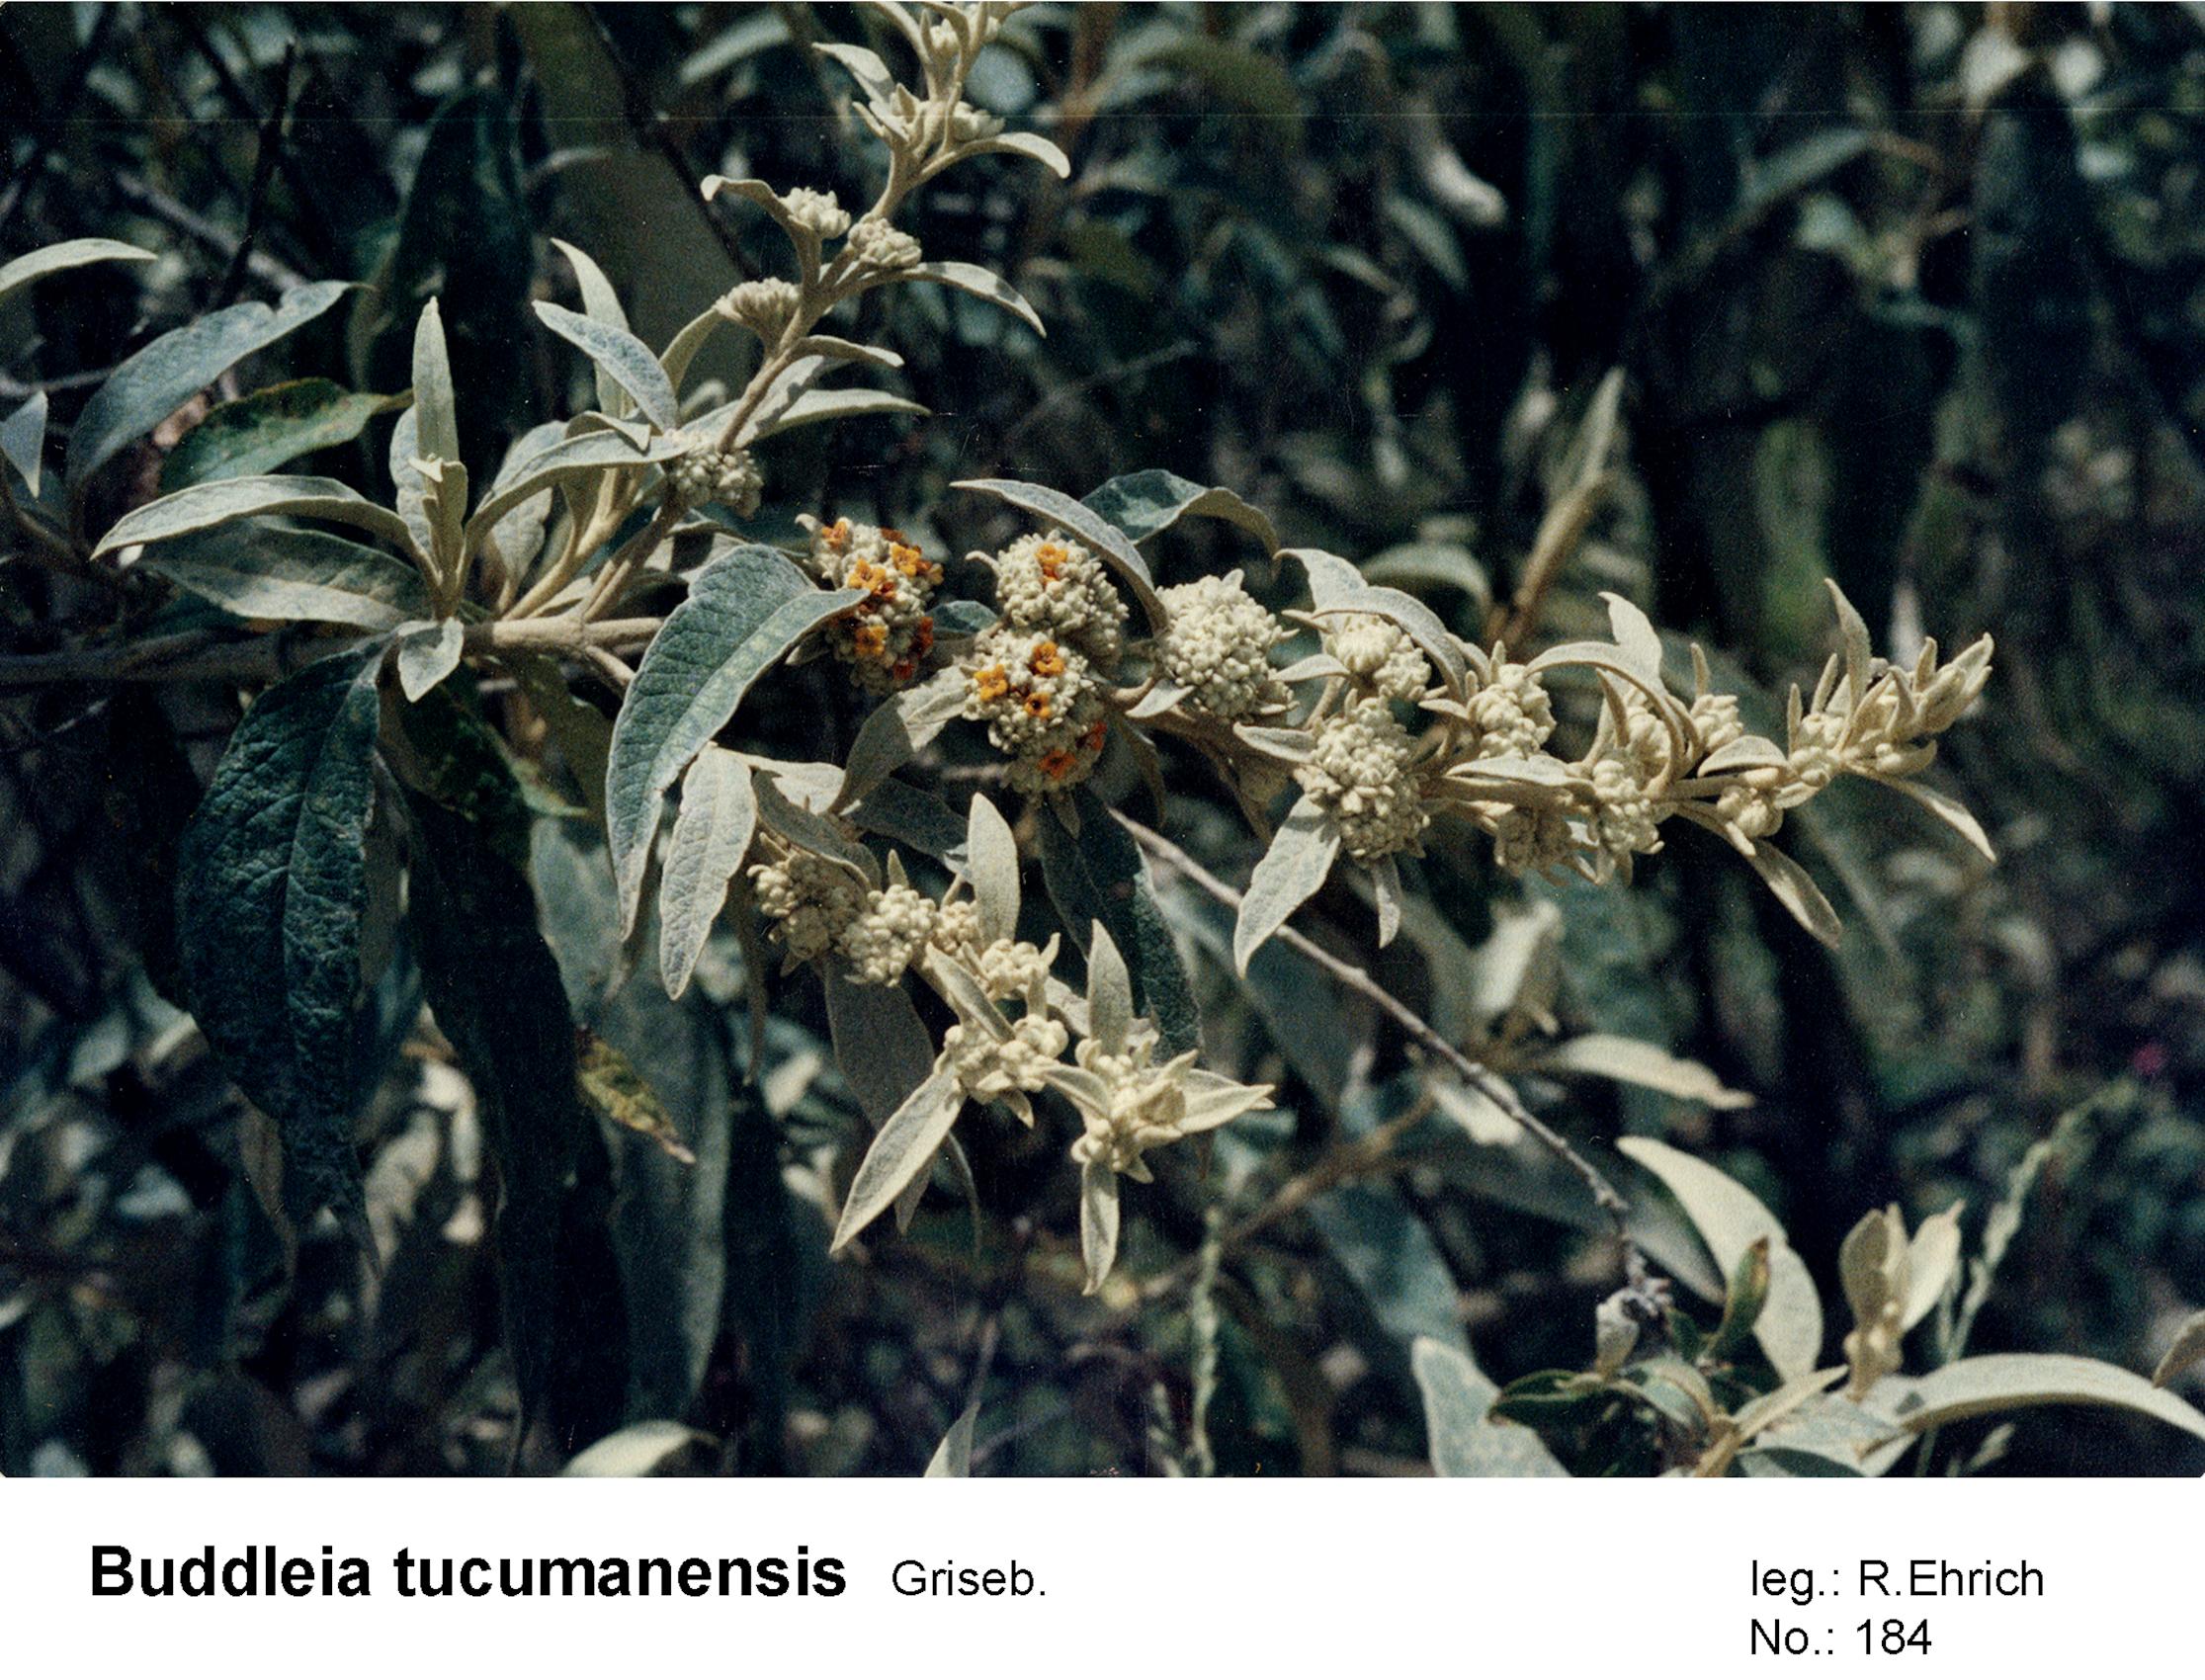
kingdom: Plantae
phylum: Tracheophyta
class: Magnoliopsida
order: Lamiales
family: Scrophulariaceae
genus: Buddleja
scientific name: Buddleja tucumanensis
